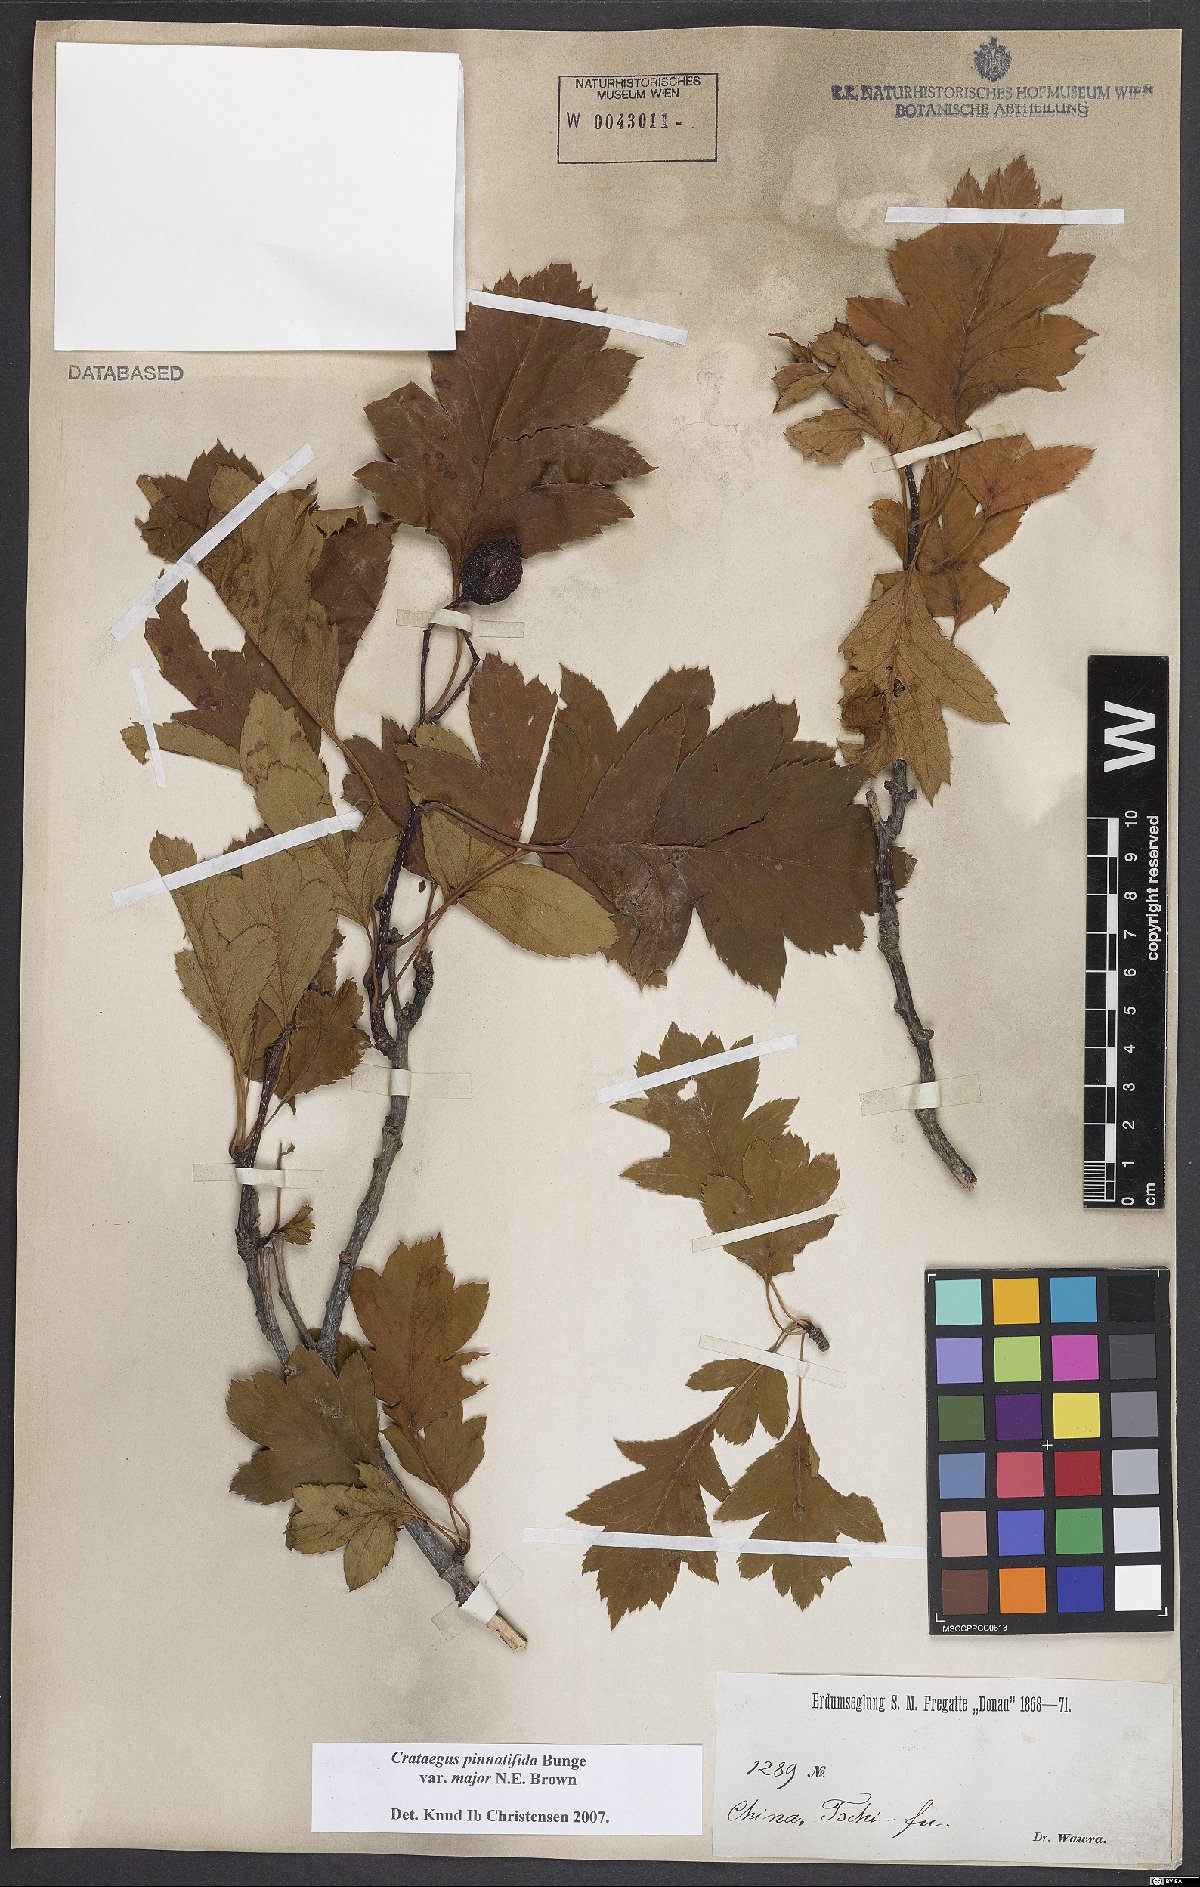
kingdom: Plantae
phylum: Tracheophyta
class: Magnoliopsida
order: Rosales
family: Rosaceae
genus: Crataegus
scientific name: Crataegus pinnatifida
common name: Chinese haw
